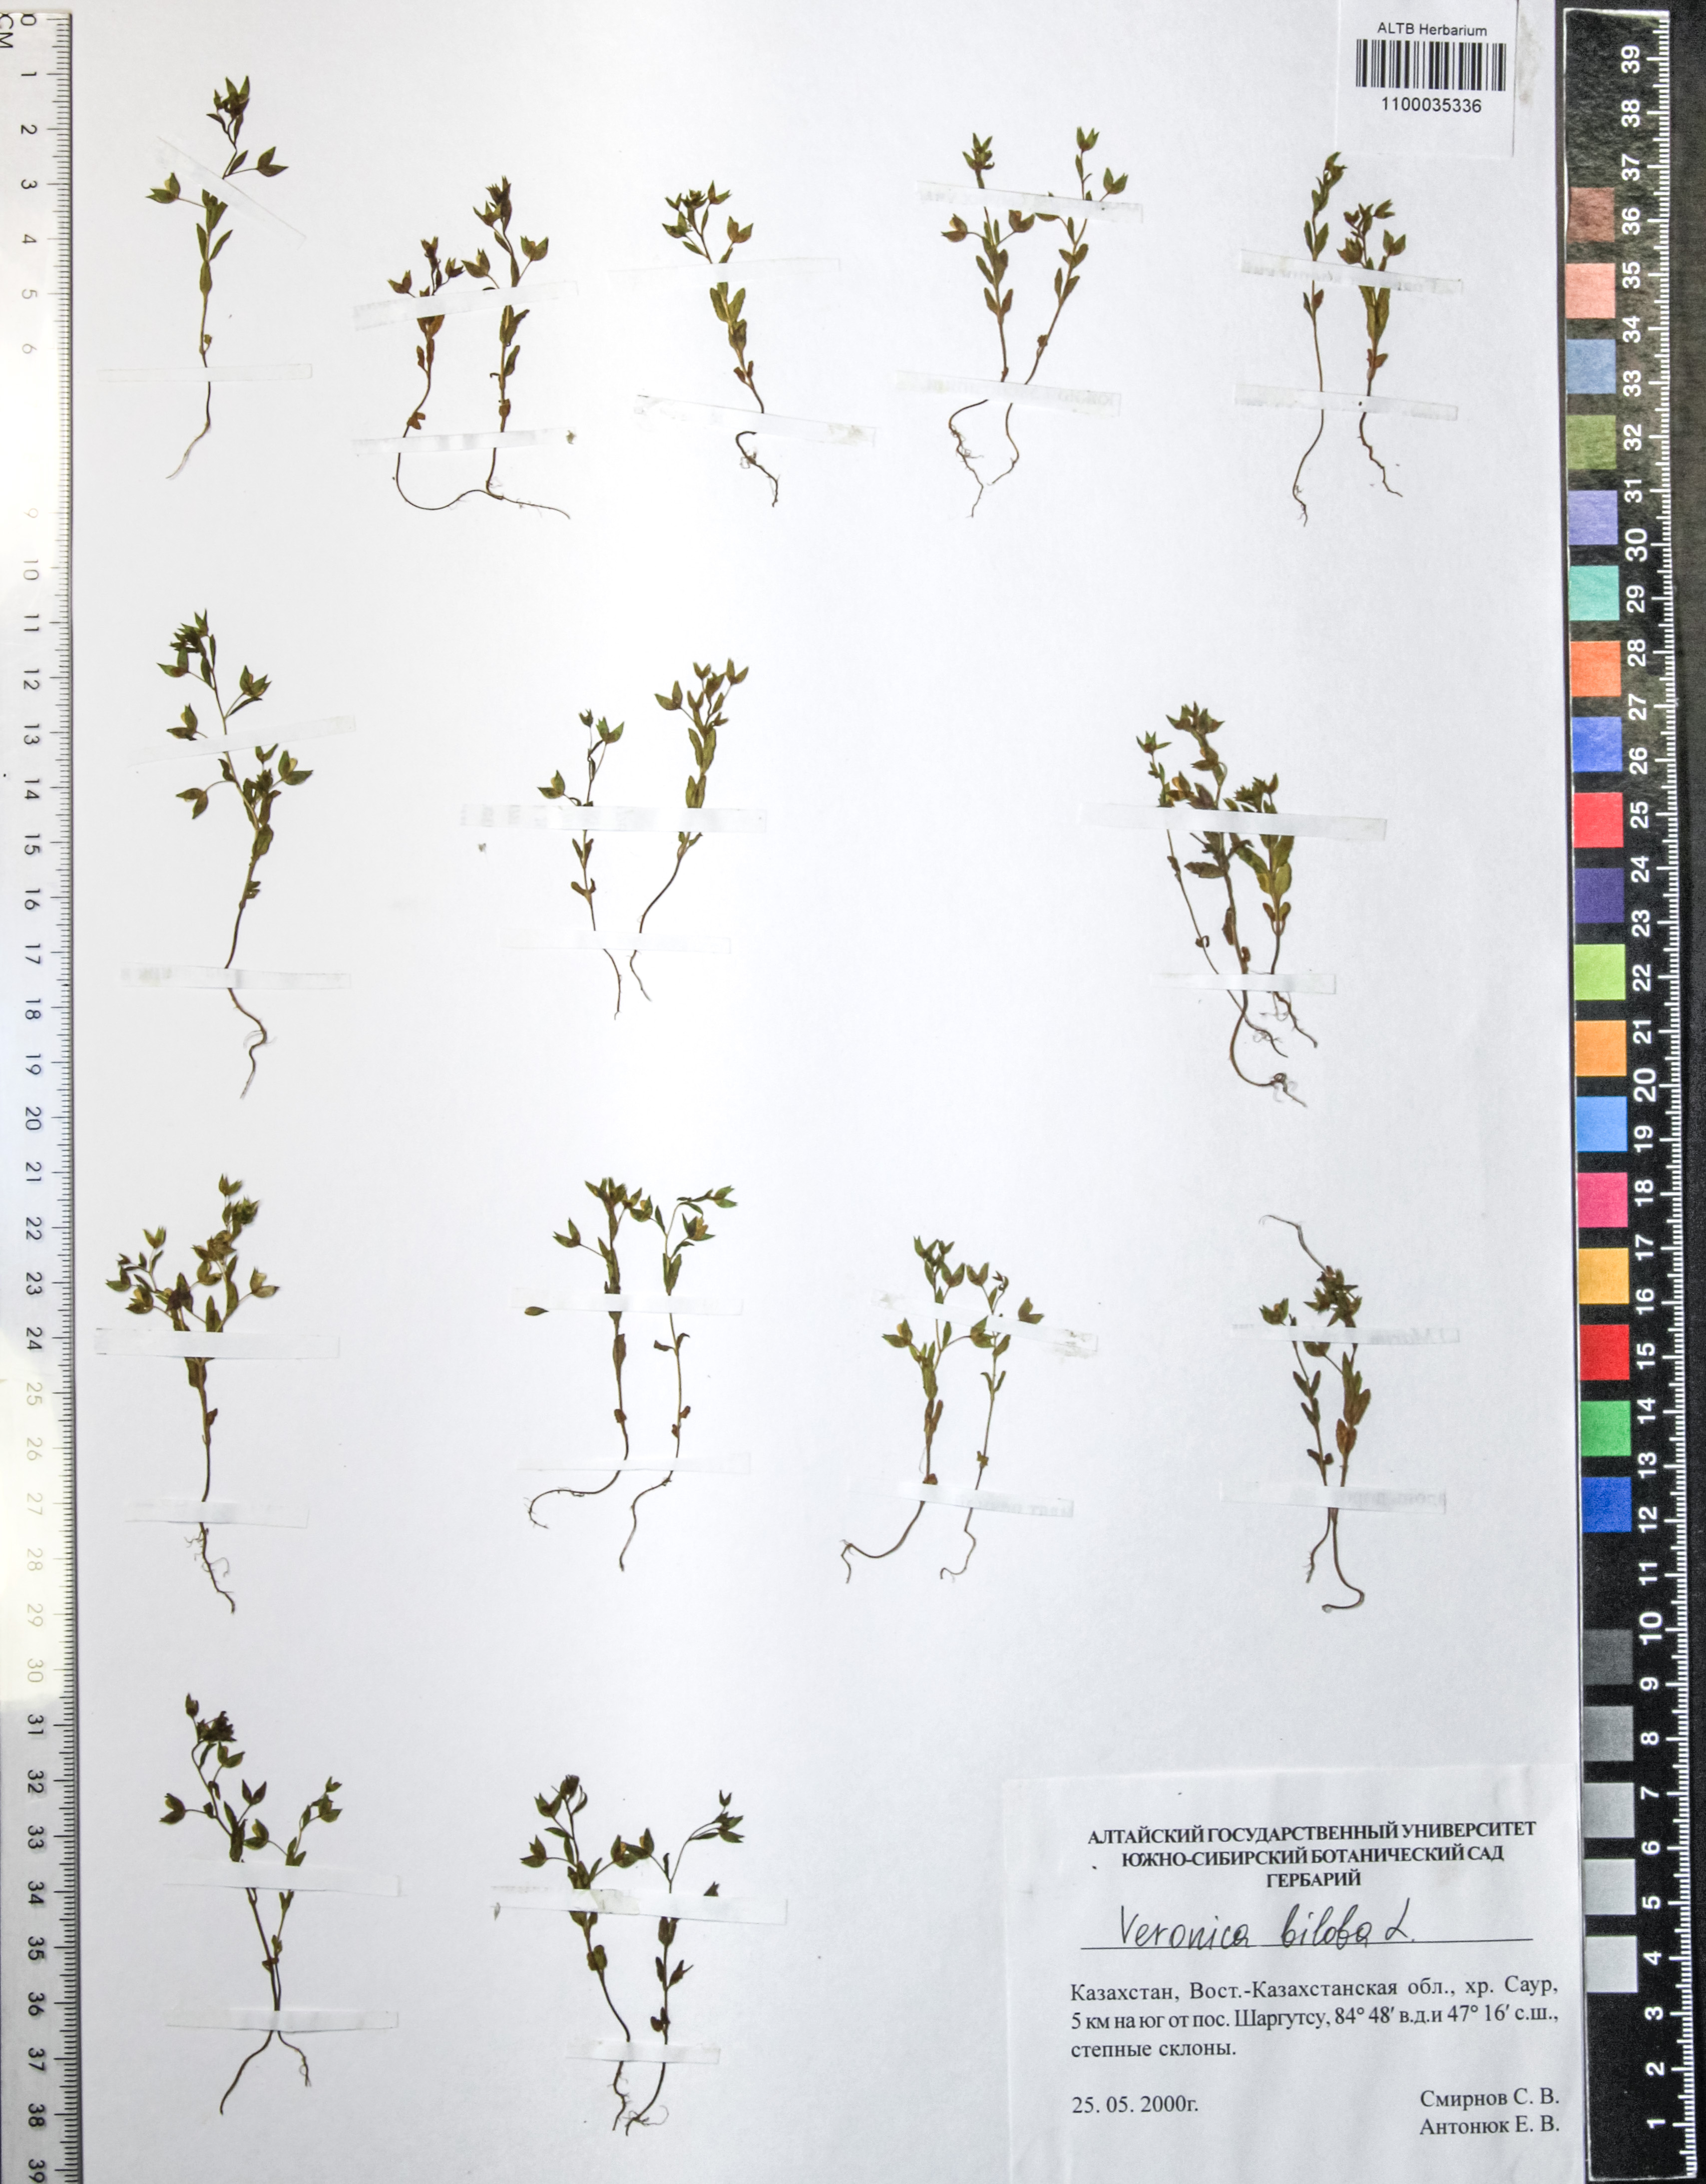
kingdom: Plantae
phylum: Tracheophyta
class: Magnoliopsida
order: Lamiales
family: Plantaginaceae
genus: Veronica
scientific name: Veronica biloba
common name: Twolobe speedwell
